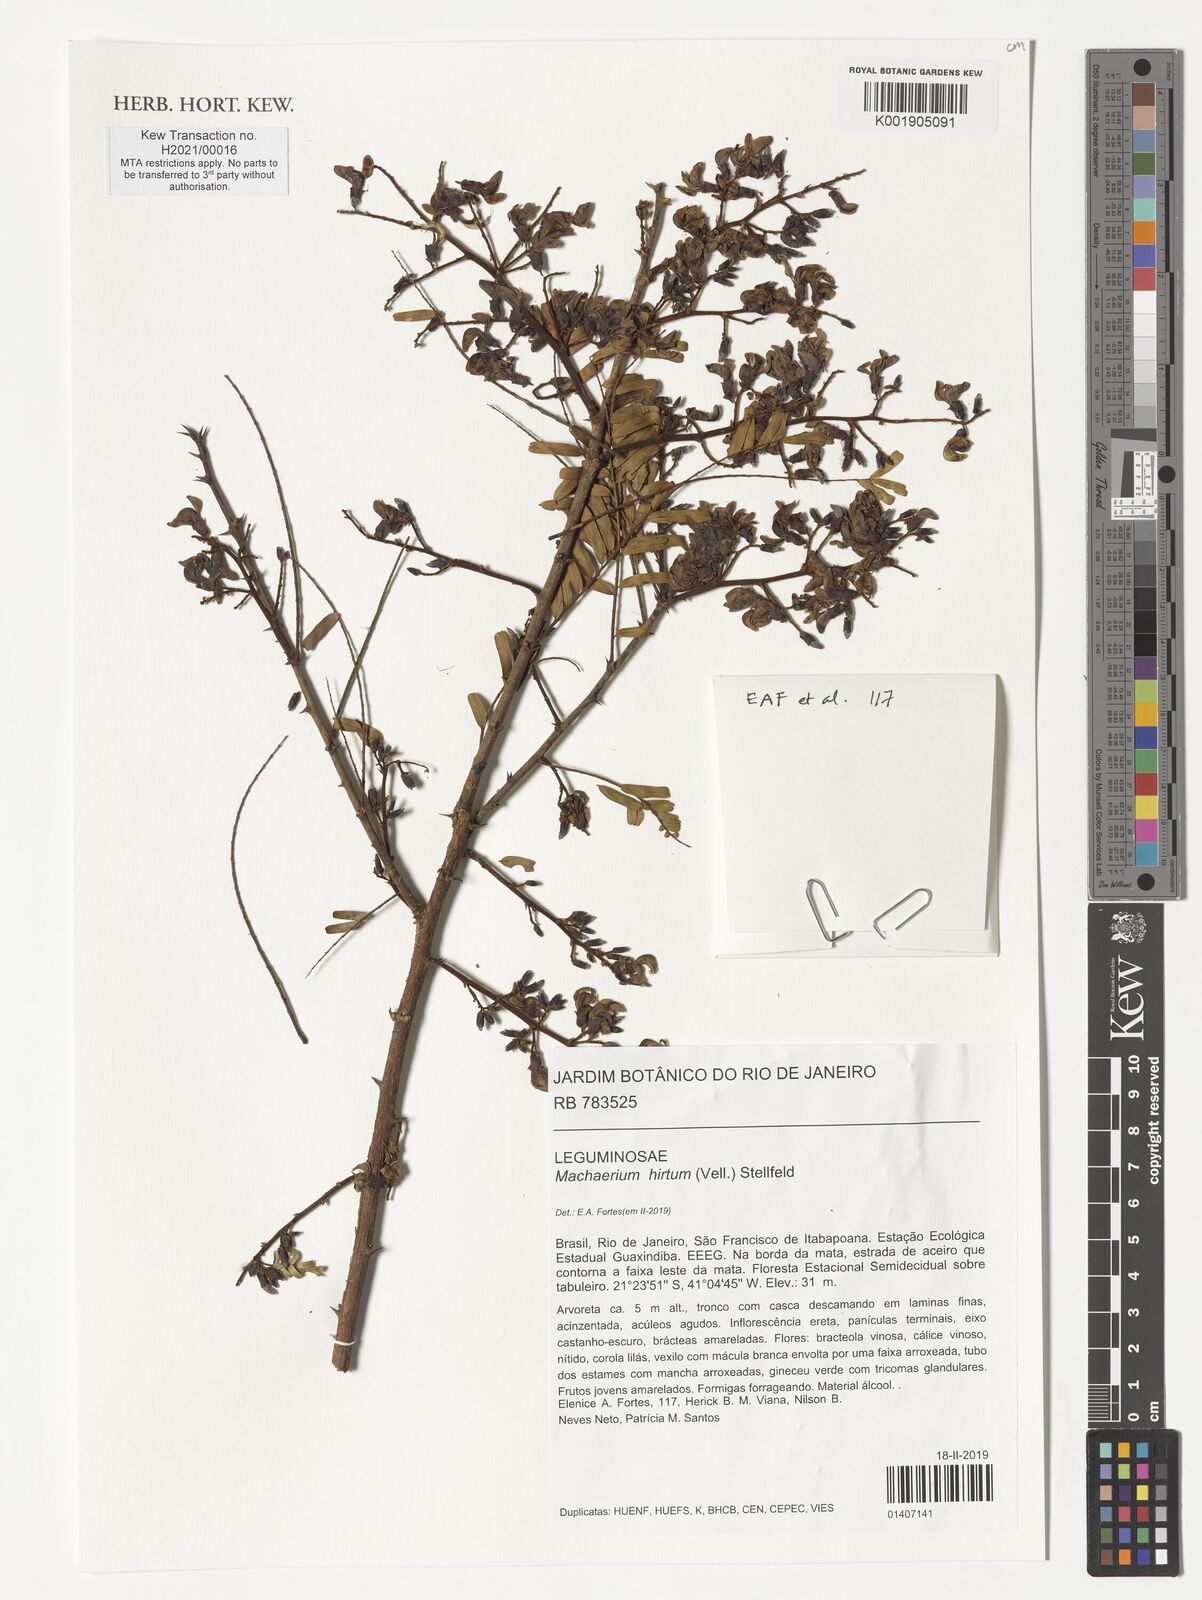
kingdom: Plantae
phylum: Tracheophyta
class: Magnoliopsida
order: Fabales
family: Fabaceae
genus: Machaerium
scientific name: Machaerium hirtum
